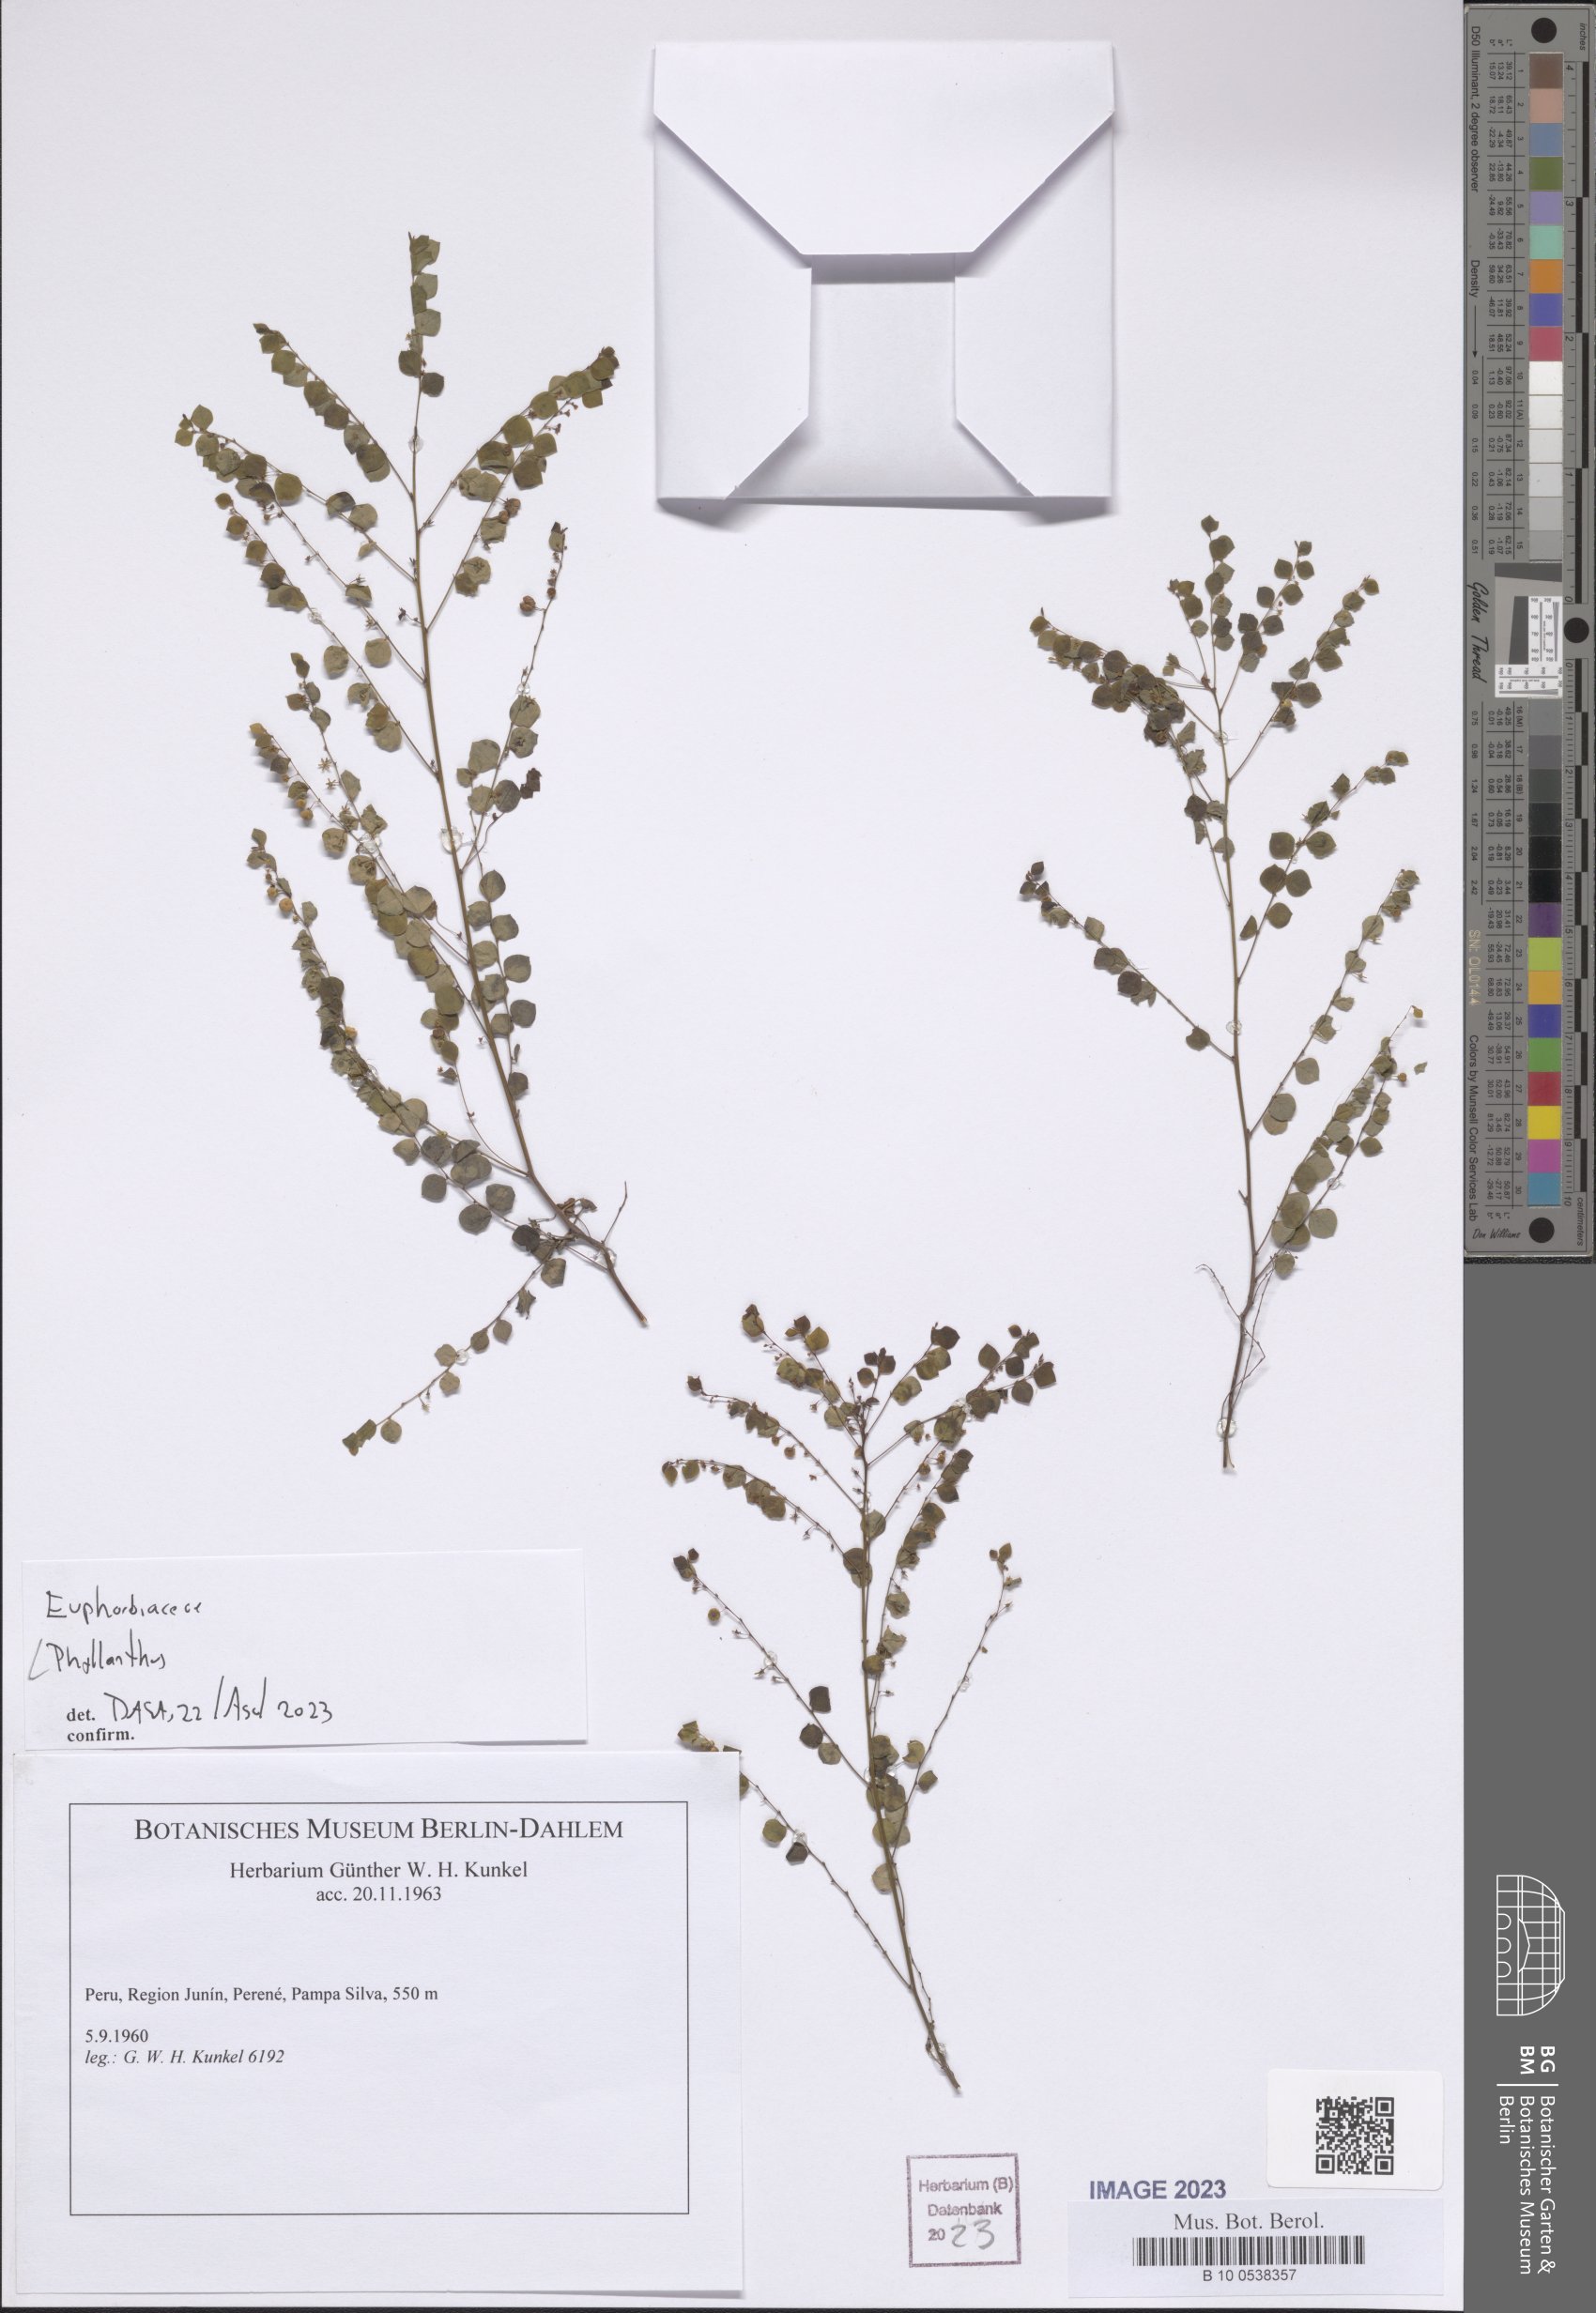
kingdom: Plantae
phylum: Tracheophyta
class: Magnoliopsida
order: Malpighiales
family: Phyllanthaceae
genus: Phyllanthus
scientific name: Phyllanthus
